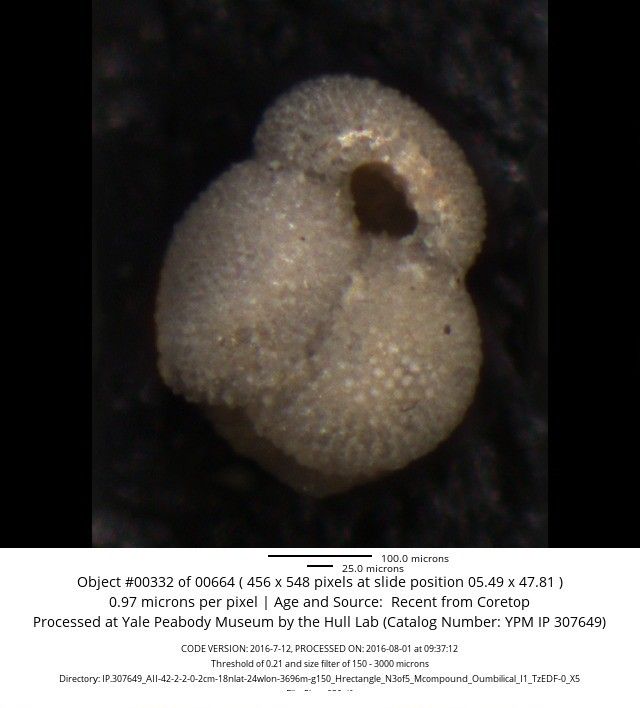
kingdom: Chromista
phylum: Foraminifera
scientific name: Foraminifera
